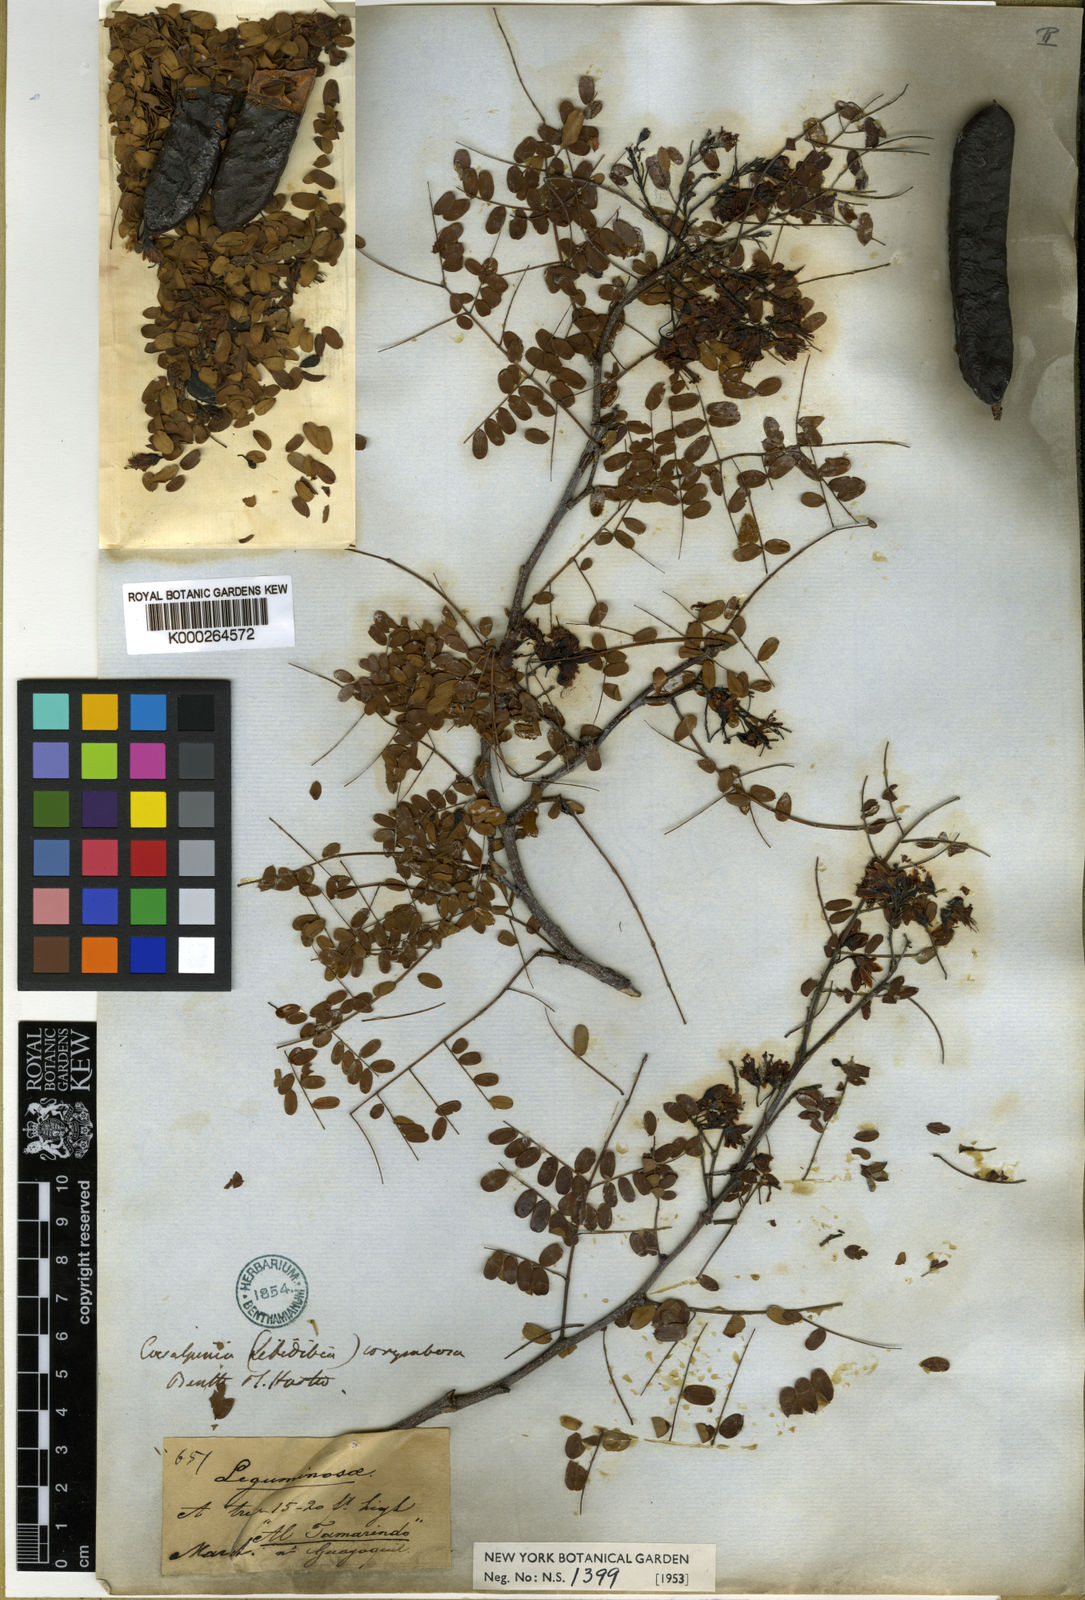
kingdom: Plantae
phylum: Tracheophyta
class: Magnoliopsida
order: Fabales
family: Fabaceae
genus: Libidibia
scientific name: Libidibia glabrata
